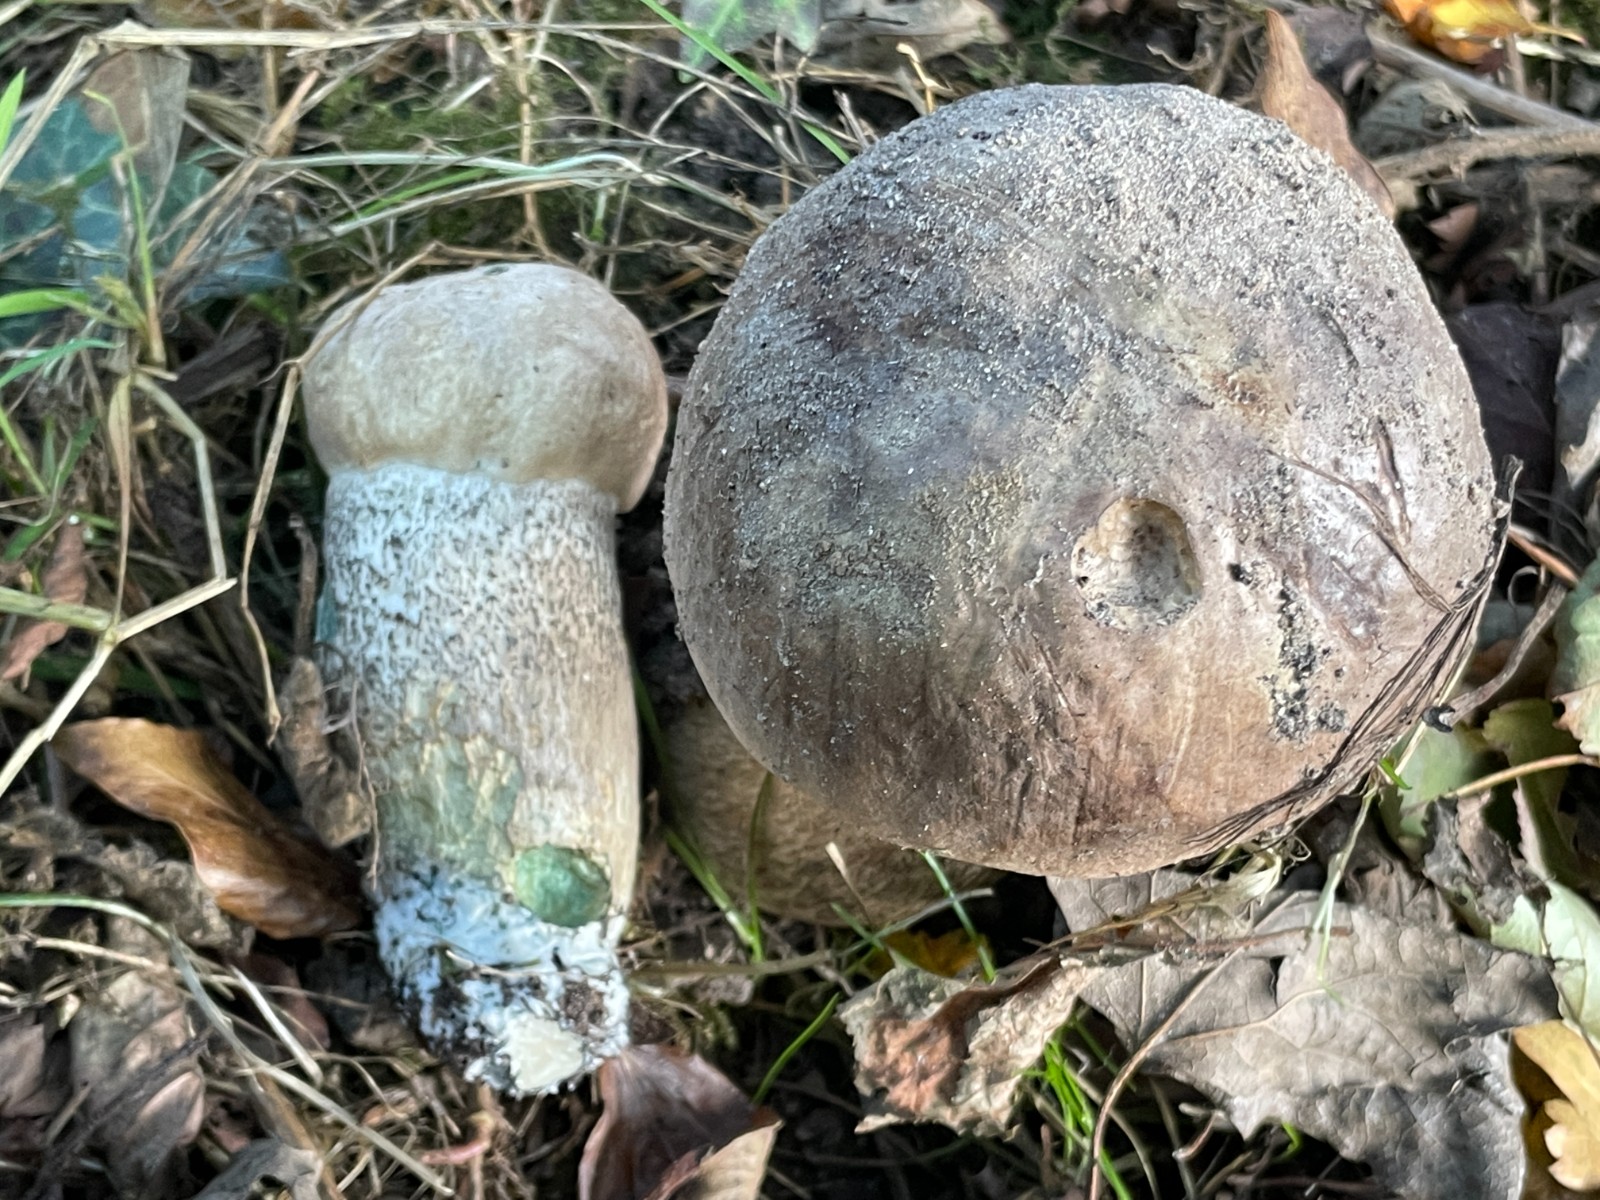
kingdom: Fungi
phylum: Basidiomycota
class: Agaricomycetes
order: Boletales
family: Boletaceae
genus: Leccinum
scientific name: Leccinum duriusculum
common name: poppel-skælrørhat
